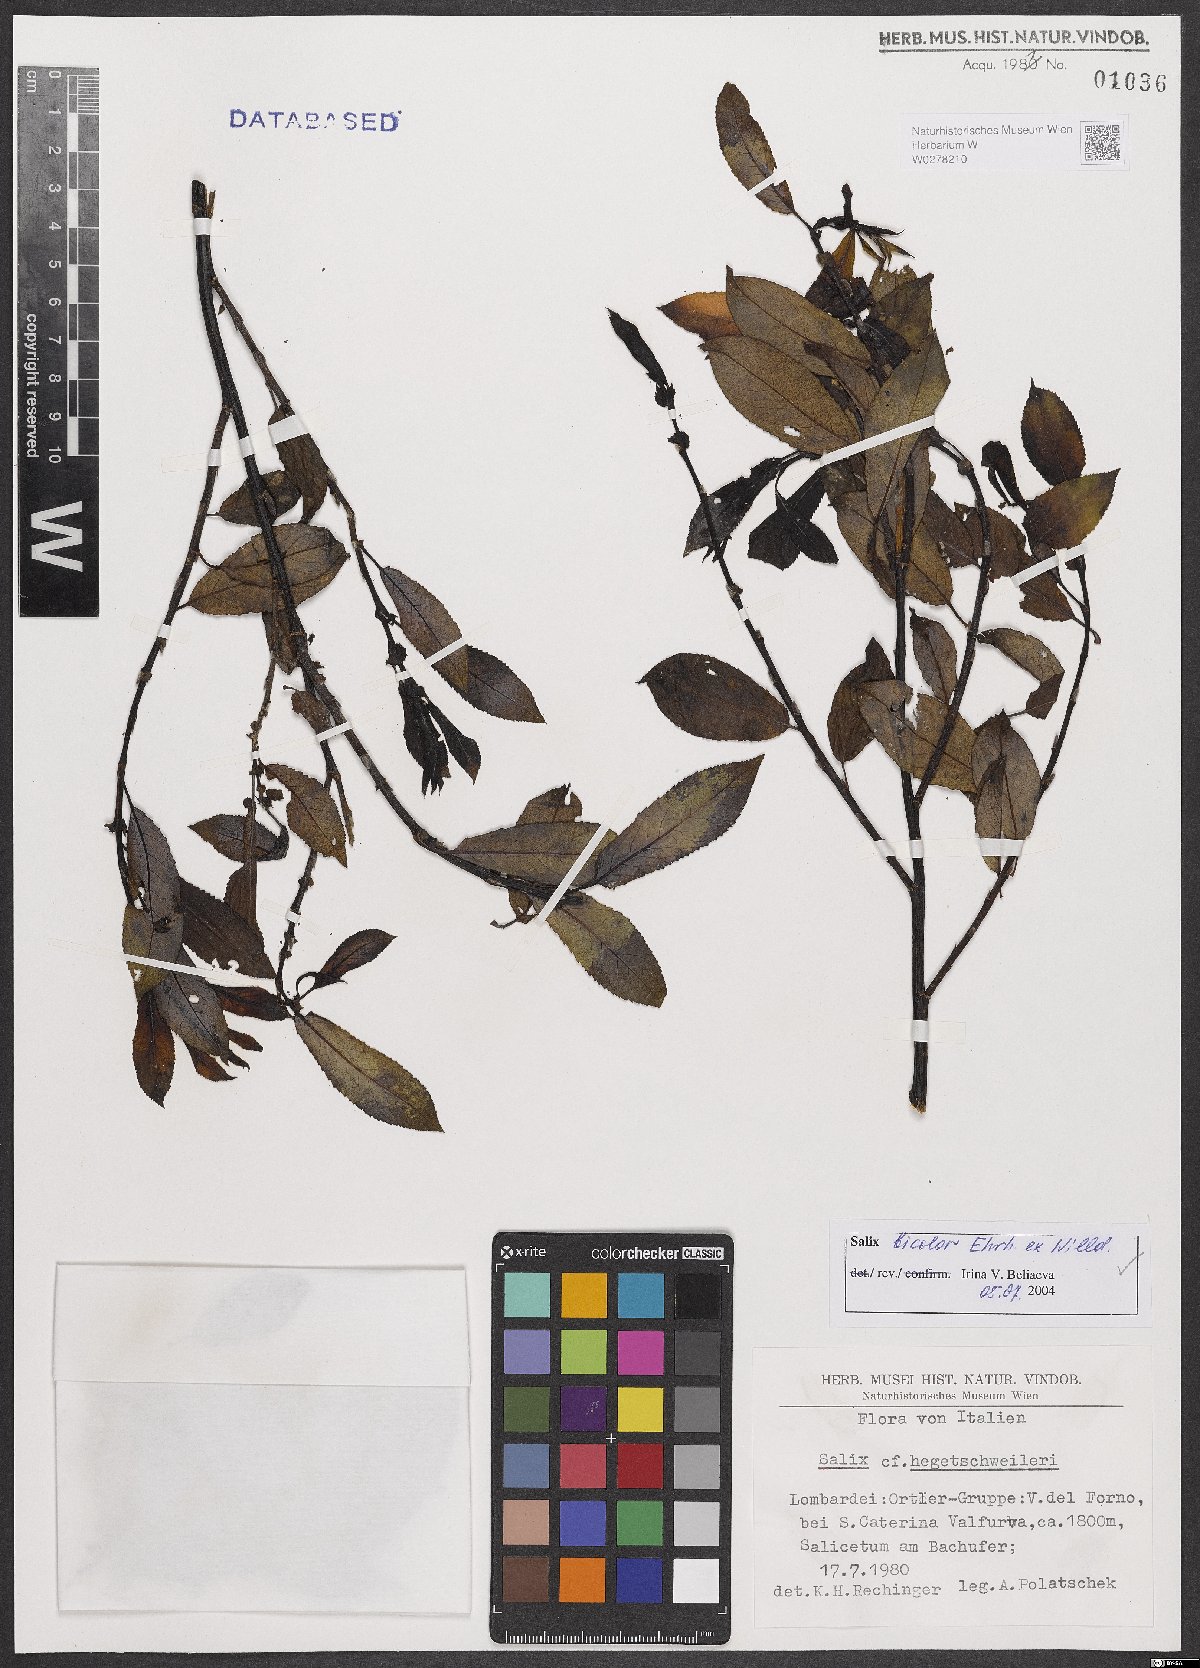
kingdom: Plantae
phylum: Tracheophyta
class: Magnoliopsida
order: Malpighiales
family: Salicaceae
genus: Salix
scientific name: Salix bicolor
